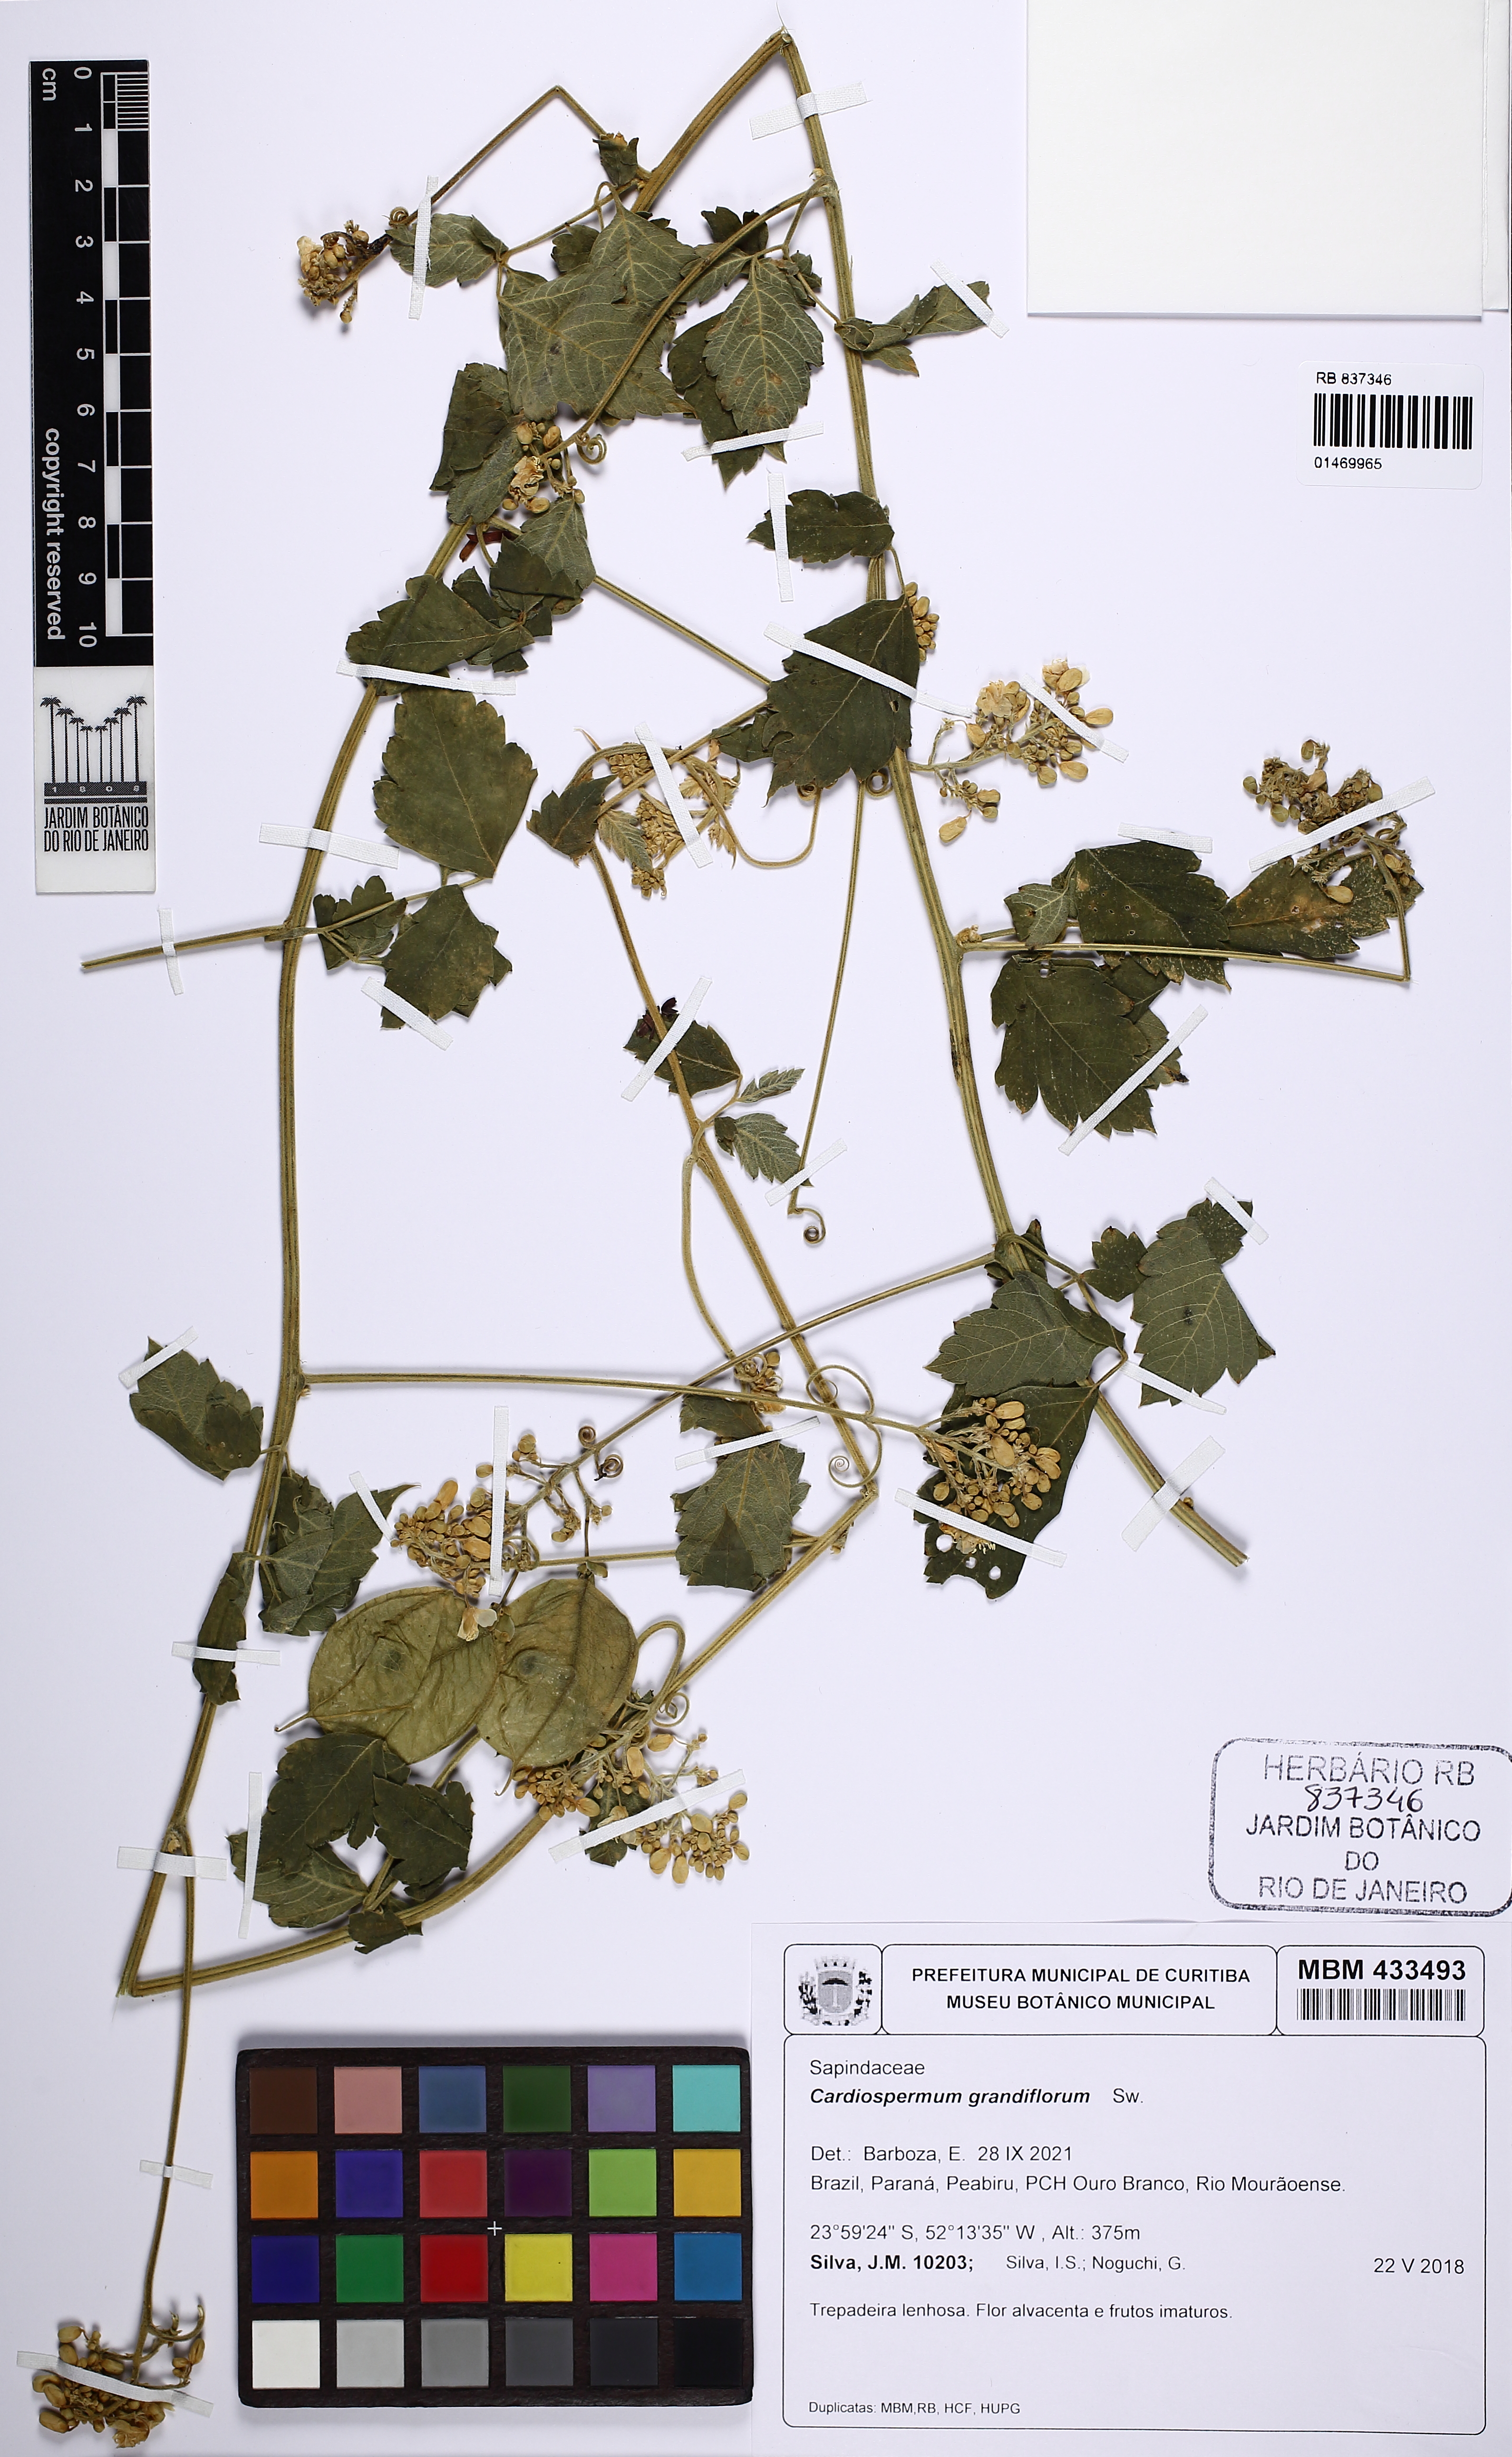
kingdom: Plantae
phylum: Tracheophyta
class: Magnoliopsida
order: Sapindales
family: Sapindaceae
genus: Cardiospermum
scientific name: Cardiospermum grandiflorum
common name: Balloon vine
